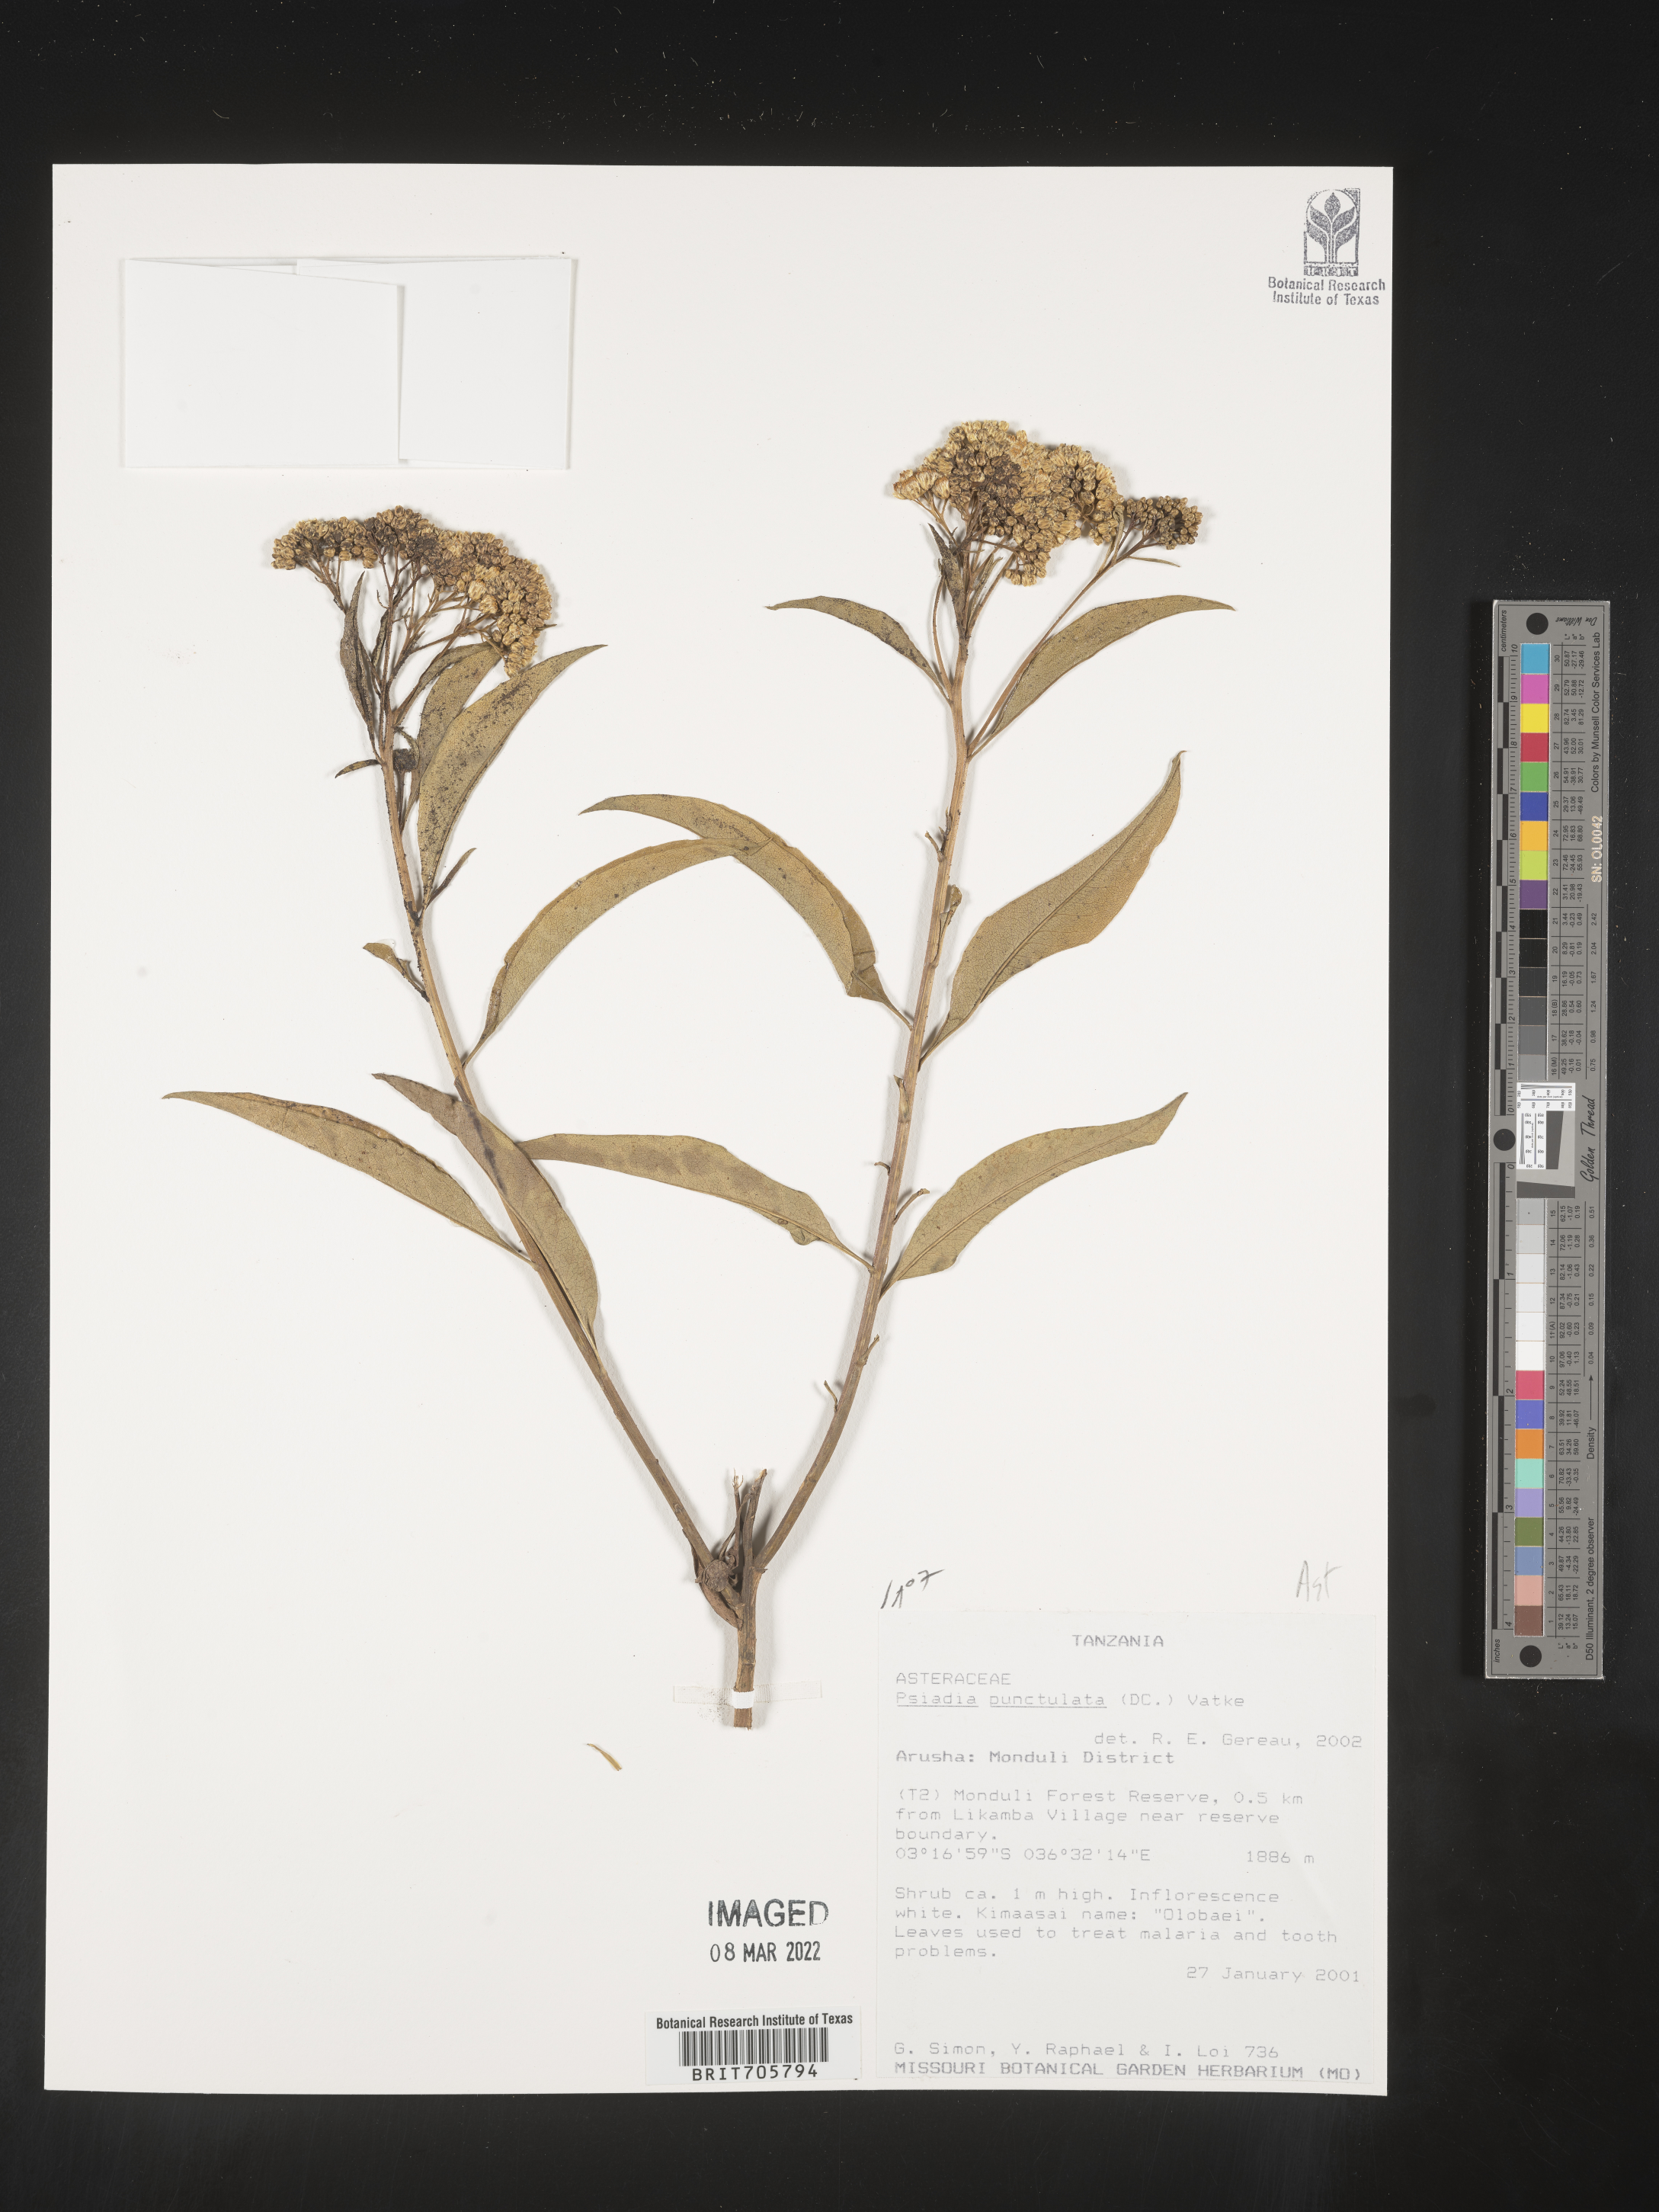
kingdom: Plantae
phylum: Tracheophyta
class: Magnoliopsida
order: Asterales
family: Asteraceae
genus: Psiadia
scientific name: Psiadia
